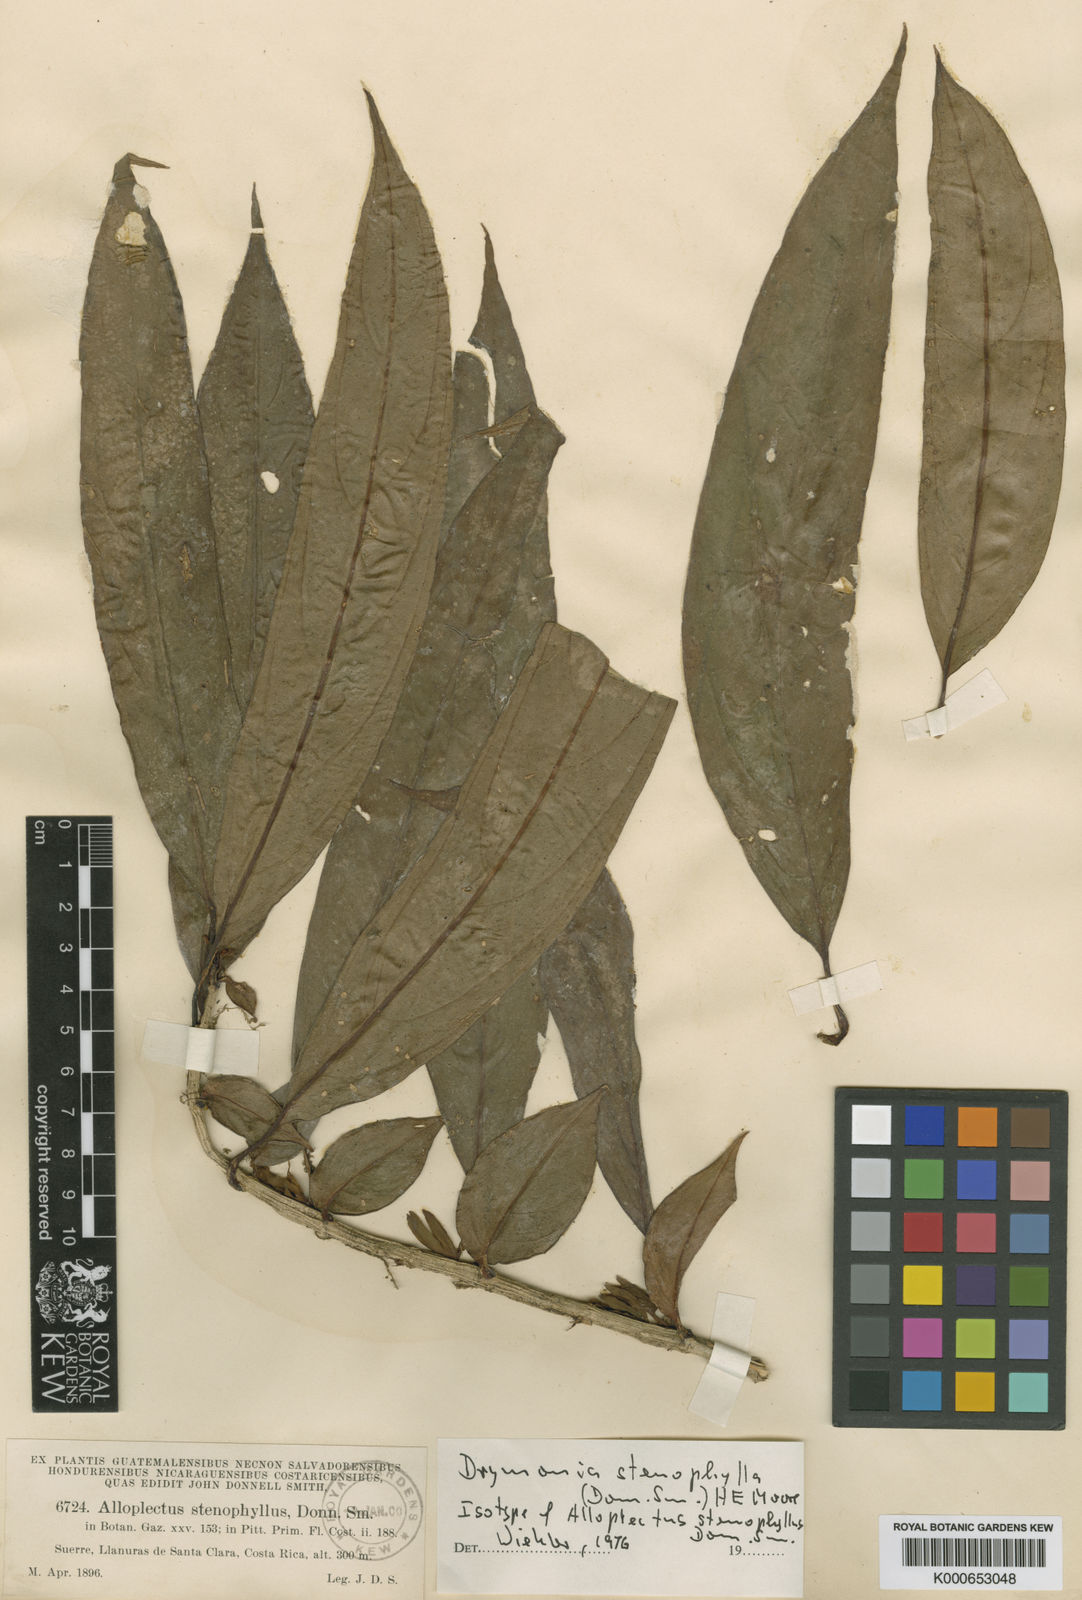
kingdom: Plantae
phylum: Tracheophyta
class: Magnoliopsida
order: Lamiales
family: Gesneriaceae
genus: Drymonia
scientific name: Drymonia stenophylla
